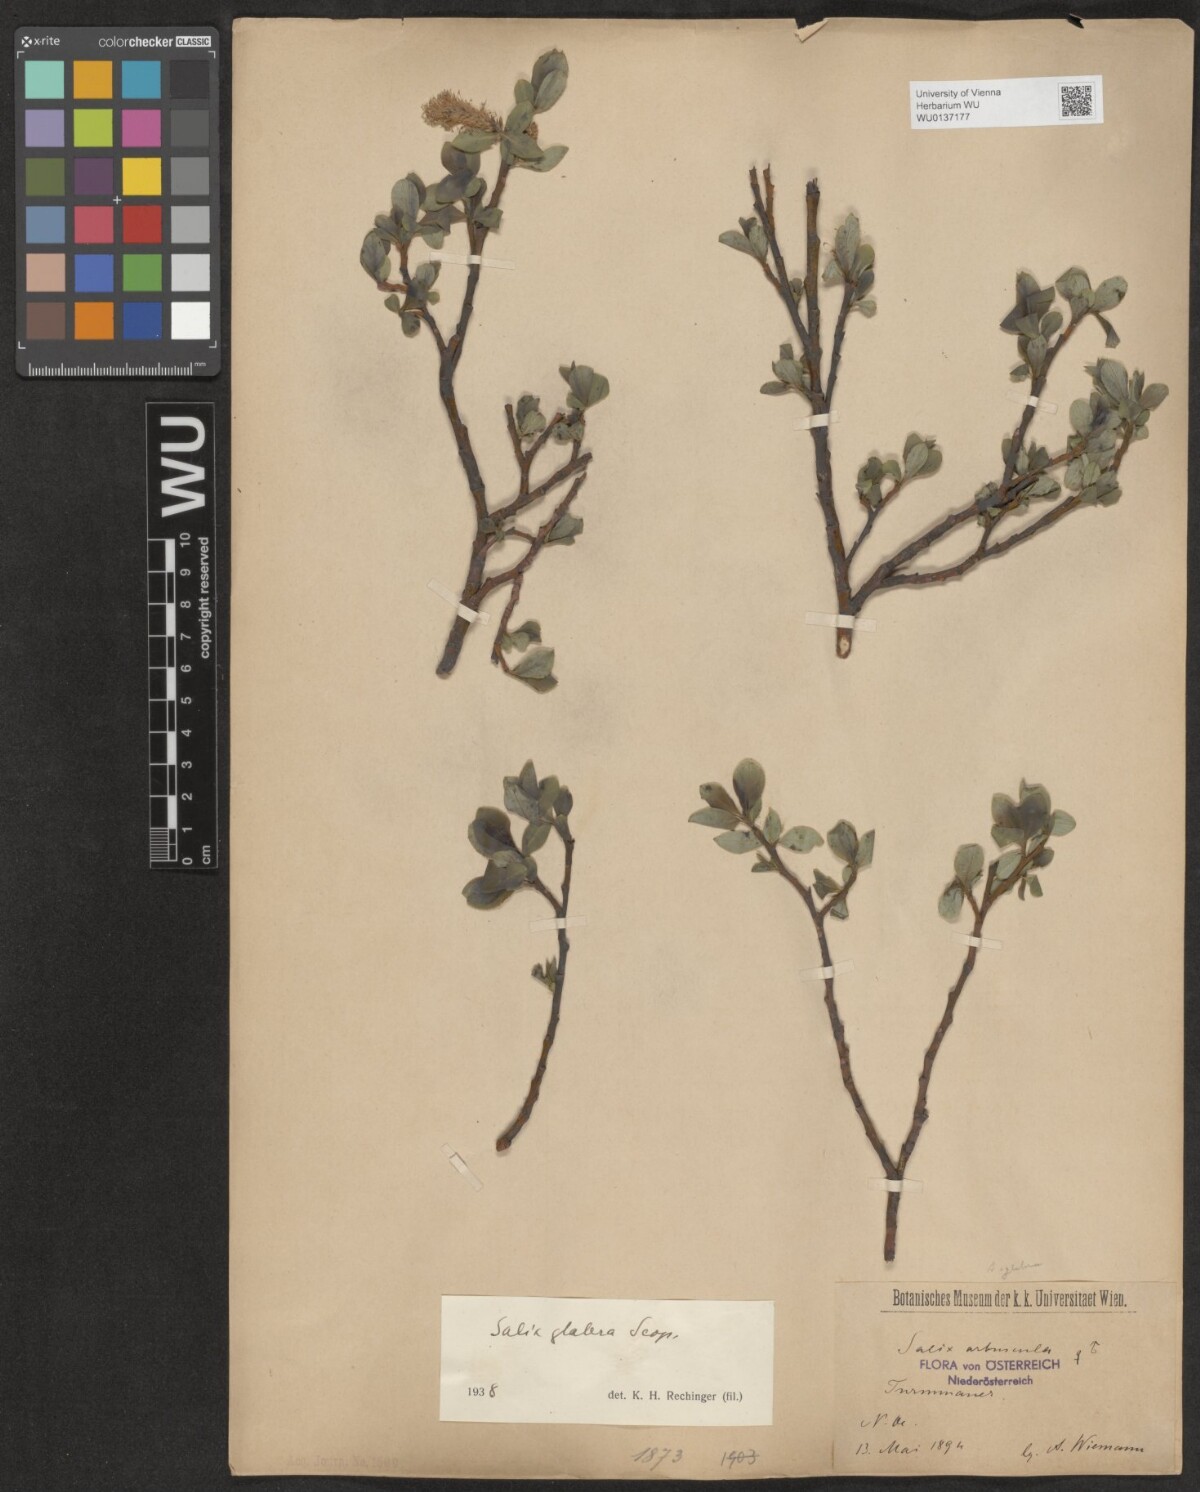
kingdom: Plantae
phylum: Tracheophyta
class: Magnoliopsida
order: Malpighiales
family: Salicaceae
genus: Salix
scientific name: Salix glabra
